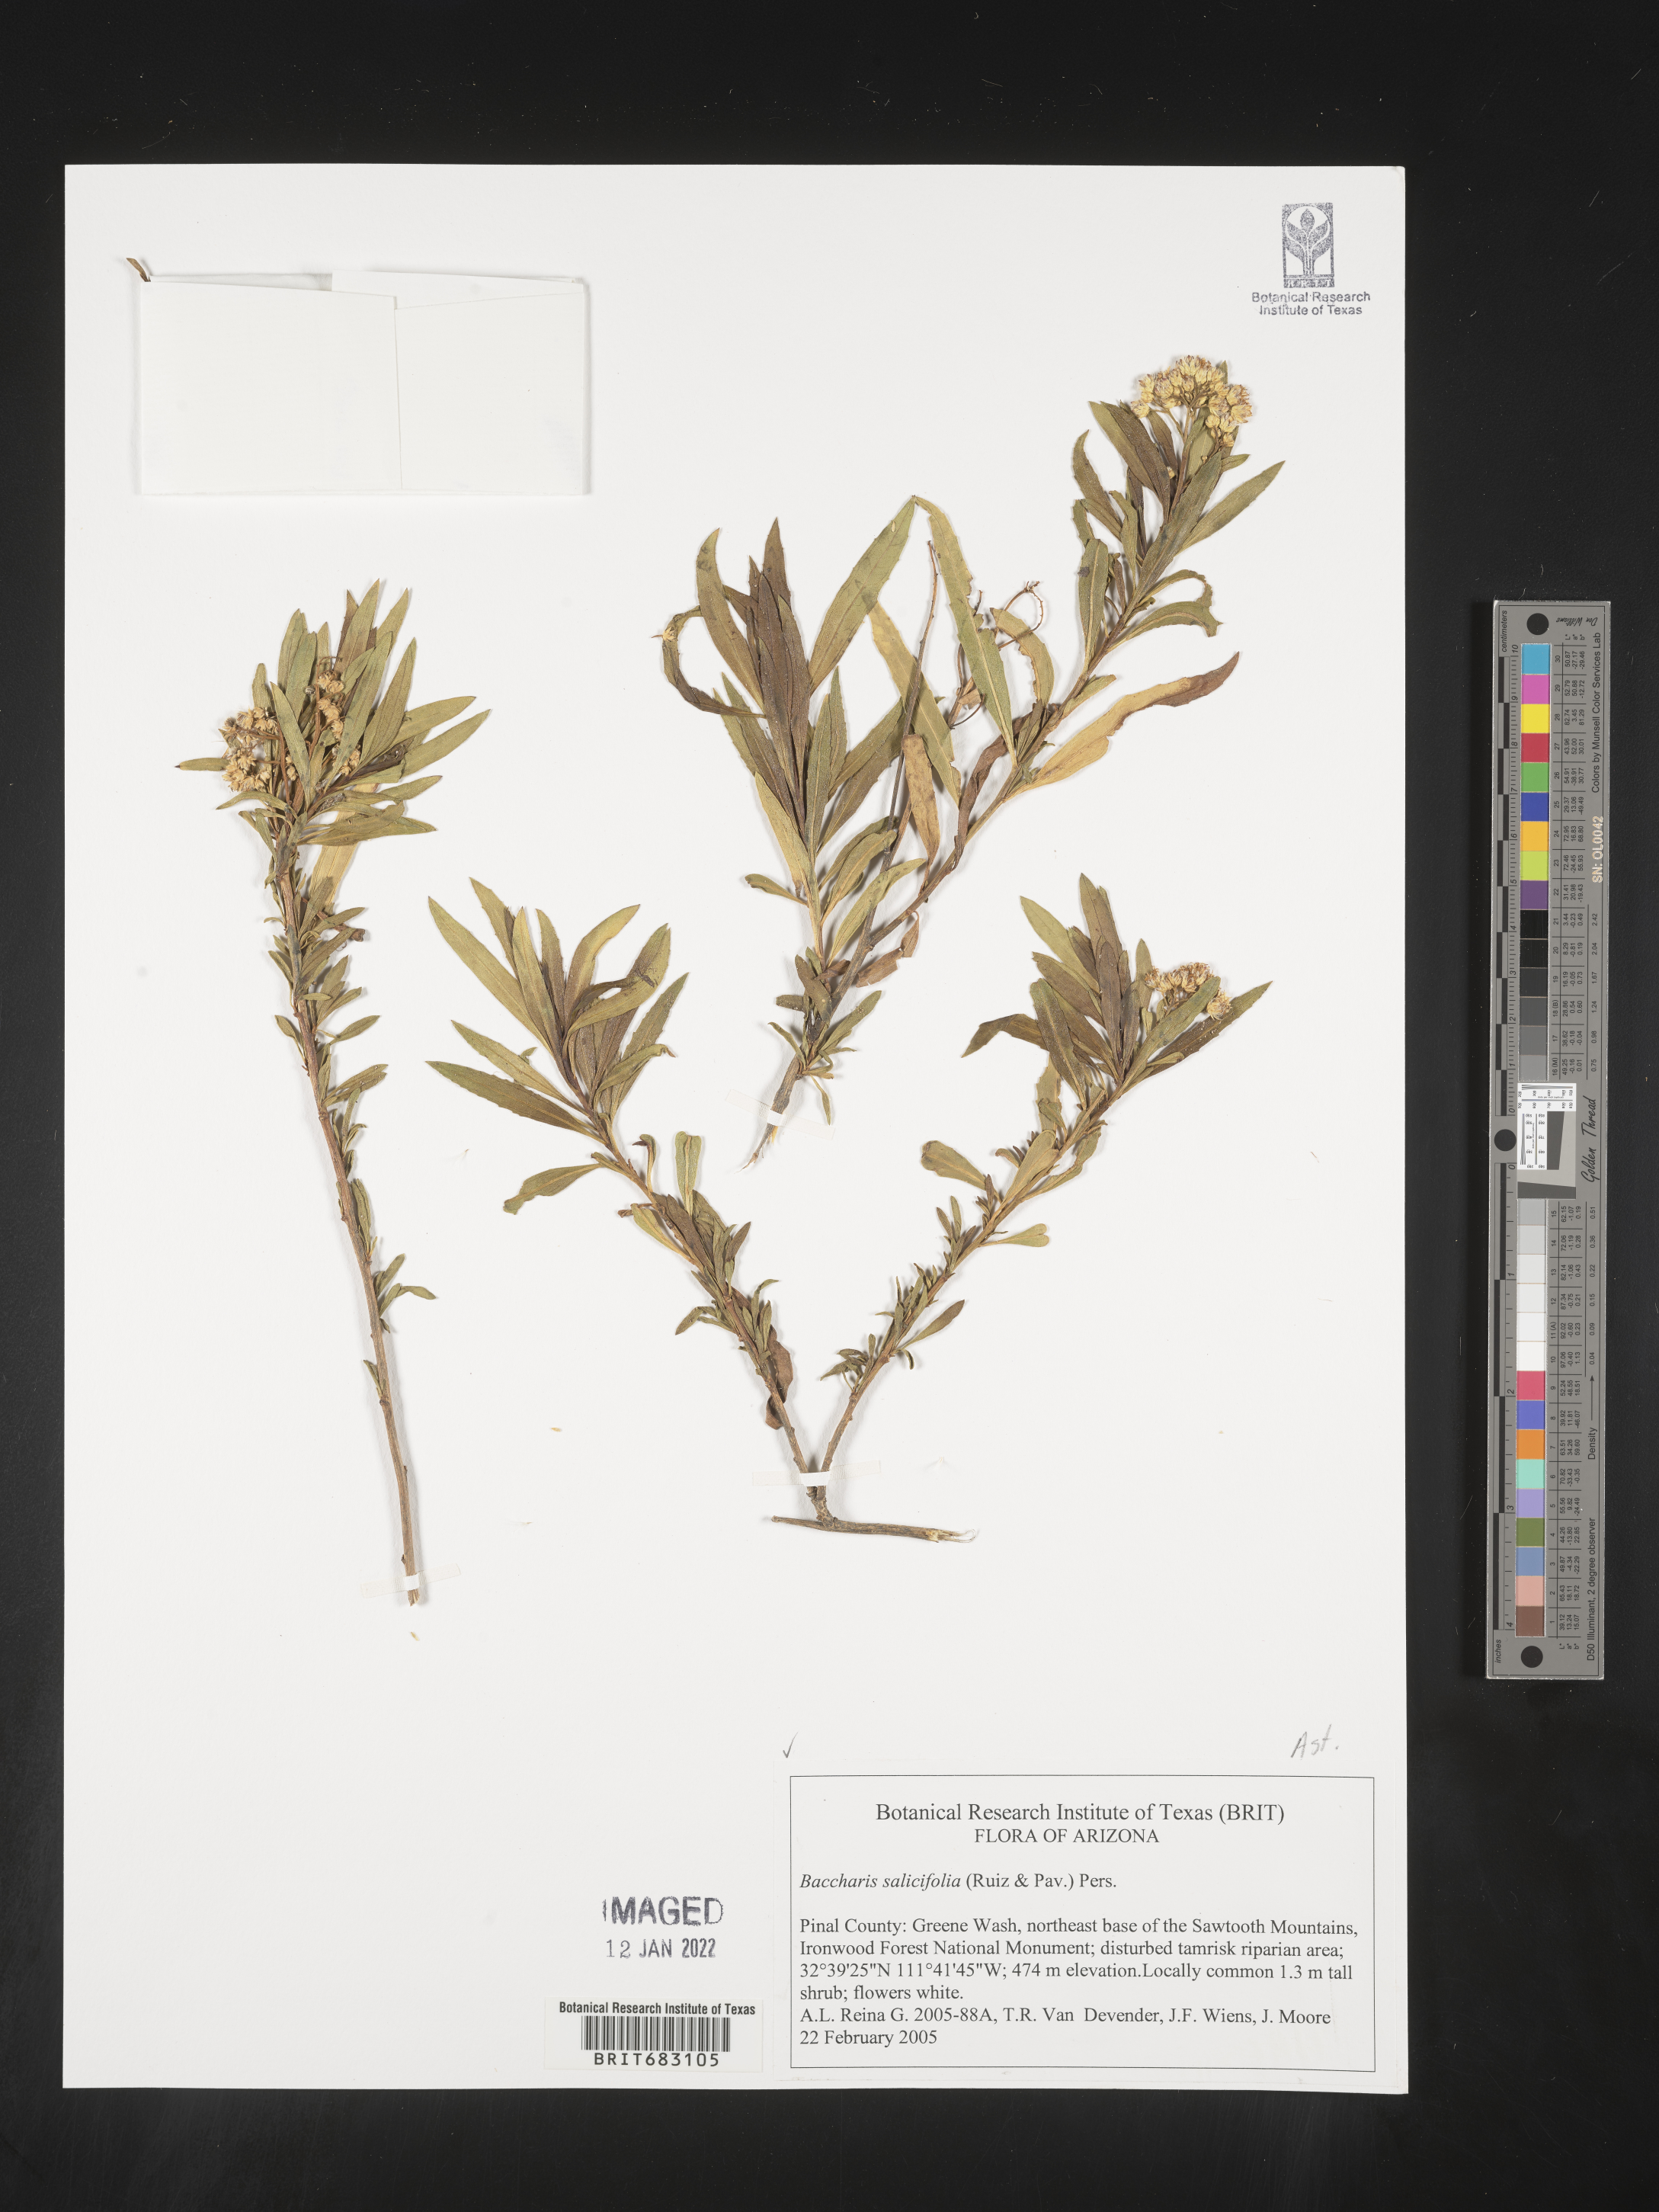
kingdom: Plantae
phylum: Tracheophyta
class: Magnoliopsida
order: Asterales
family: Asteraceae
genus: Baccharis
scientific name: Baccharis salicifolia
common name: Sticky baccharis
